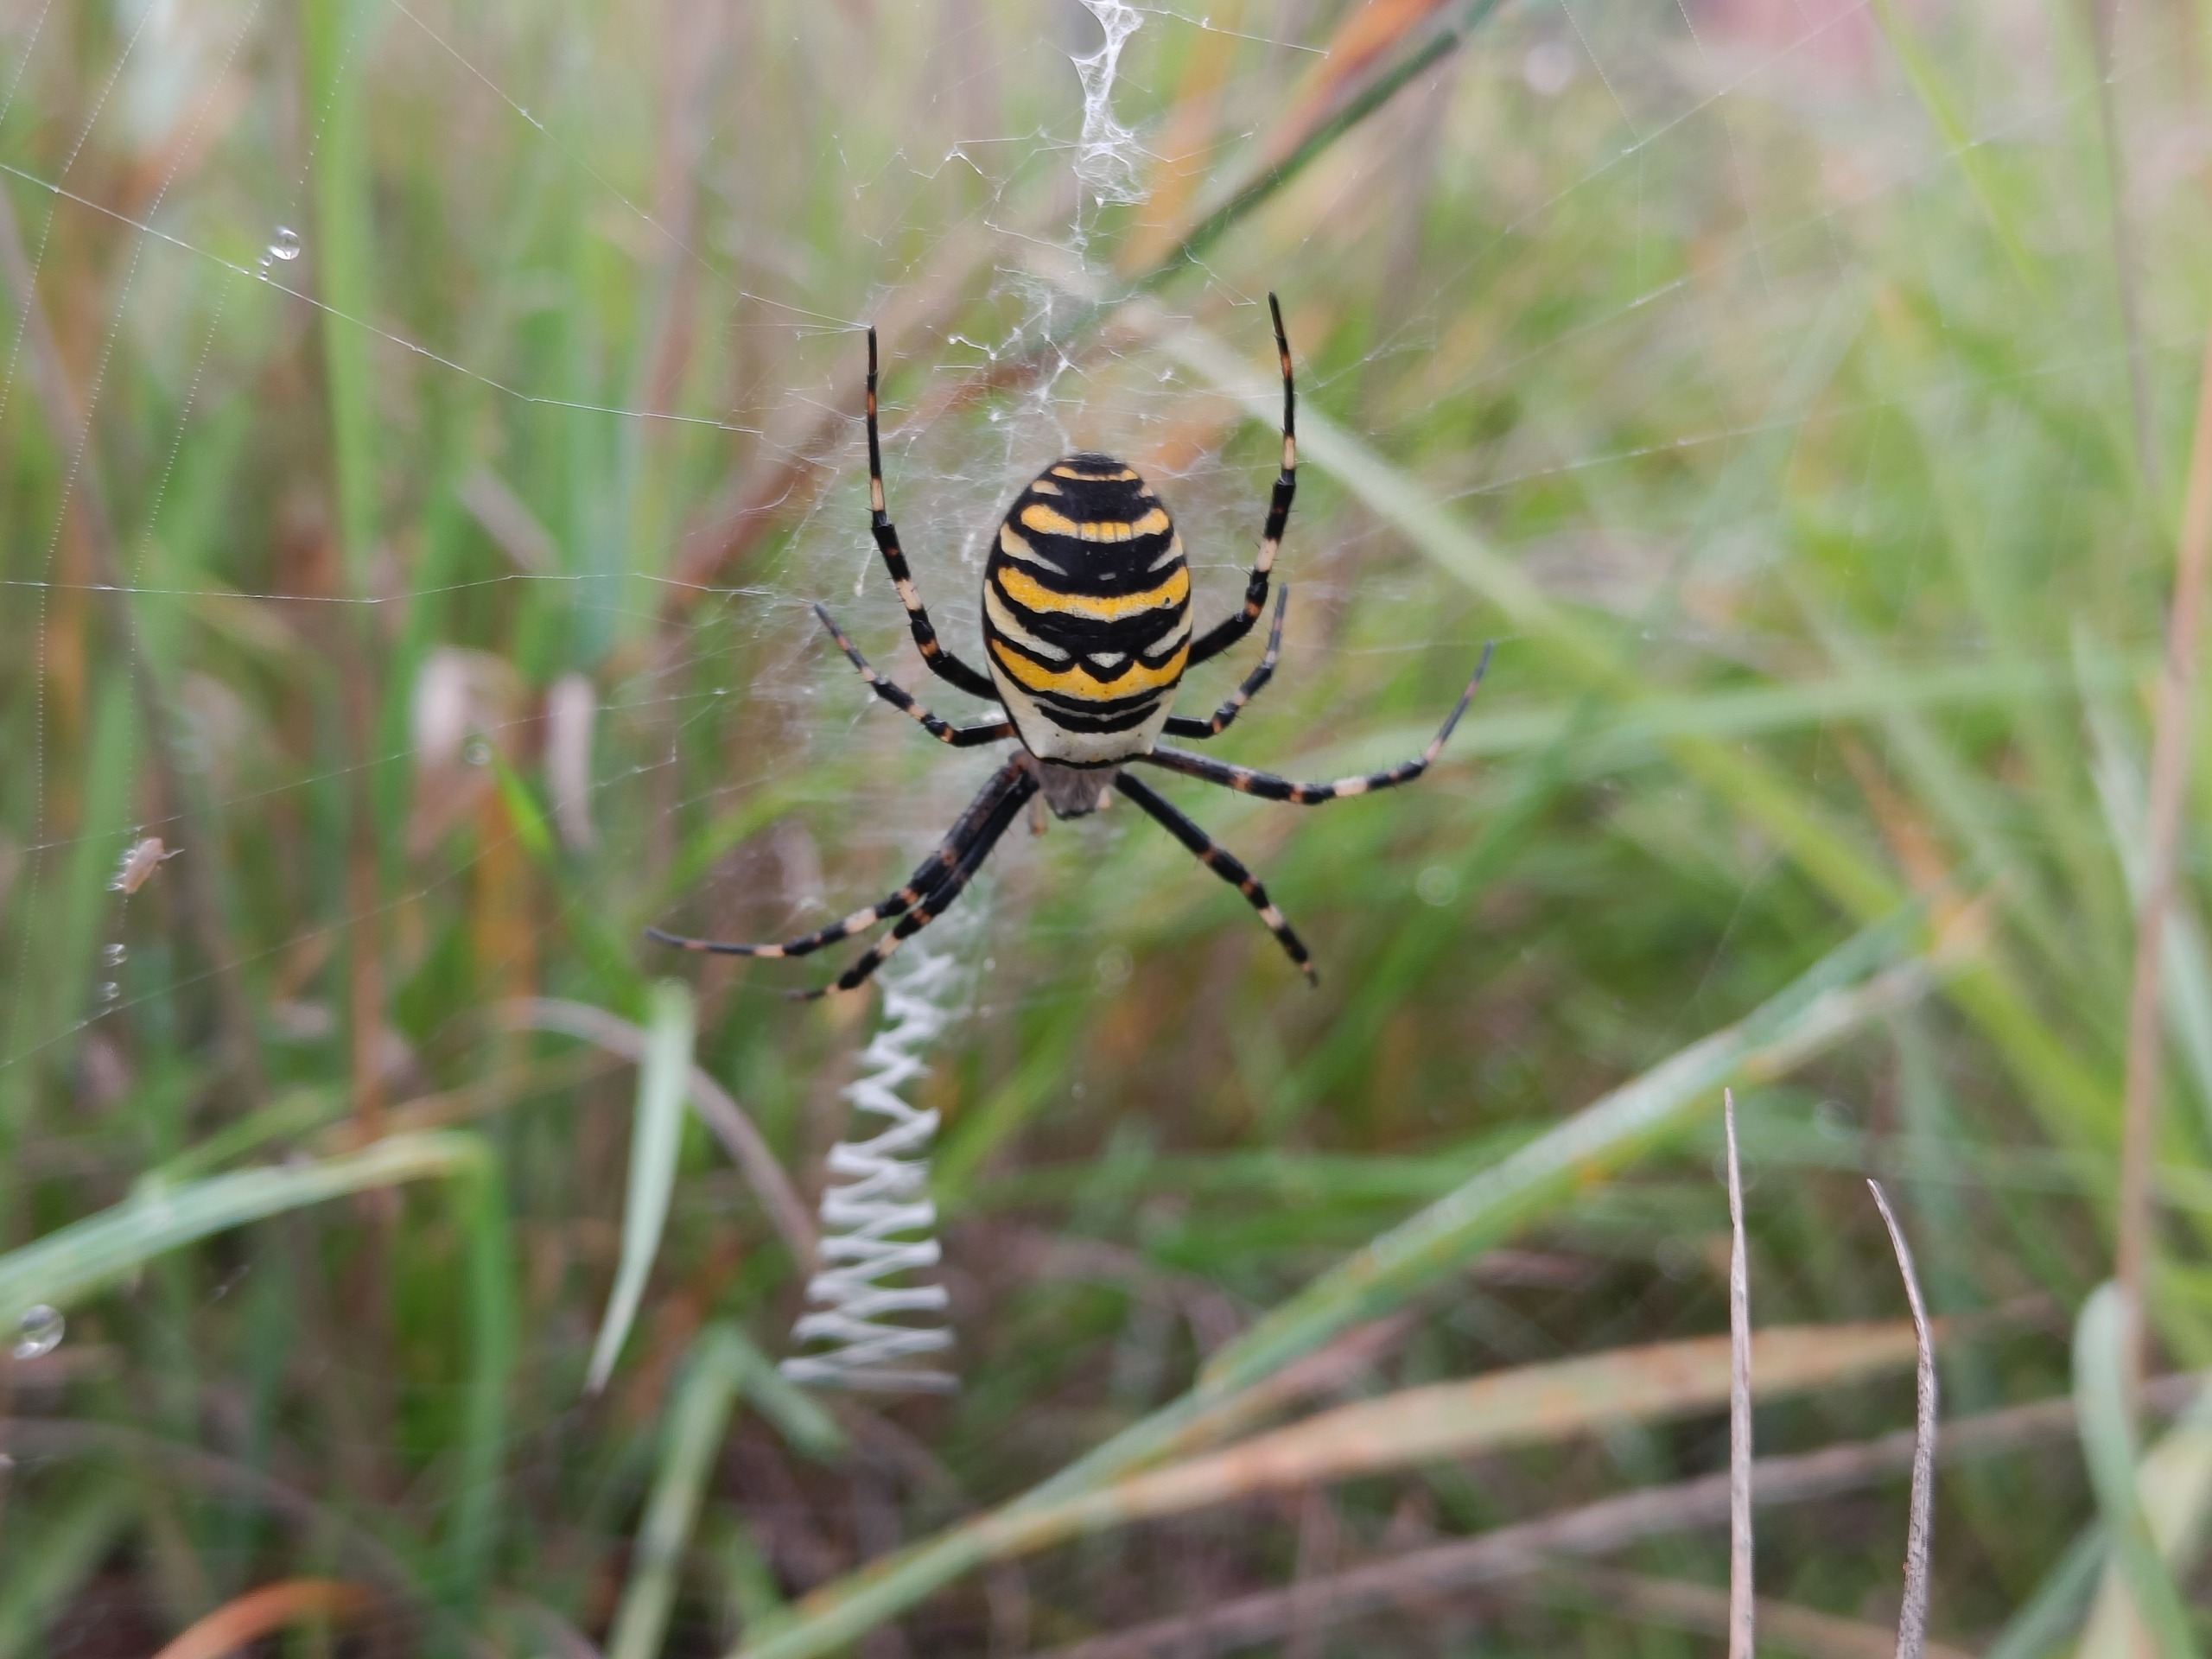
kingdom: Animalia
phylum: Arthropoda
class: Arachnida
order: Araneae
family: Araneidae
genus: Argiope
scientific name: Argiope bruennichi
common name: Hvepseedderkop
